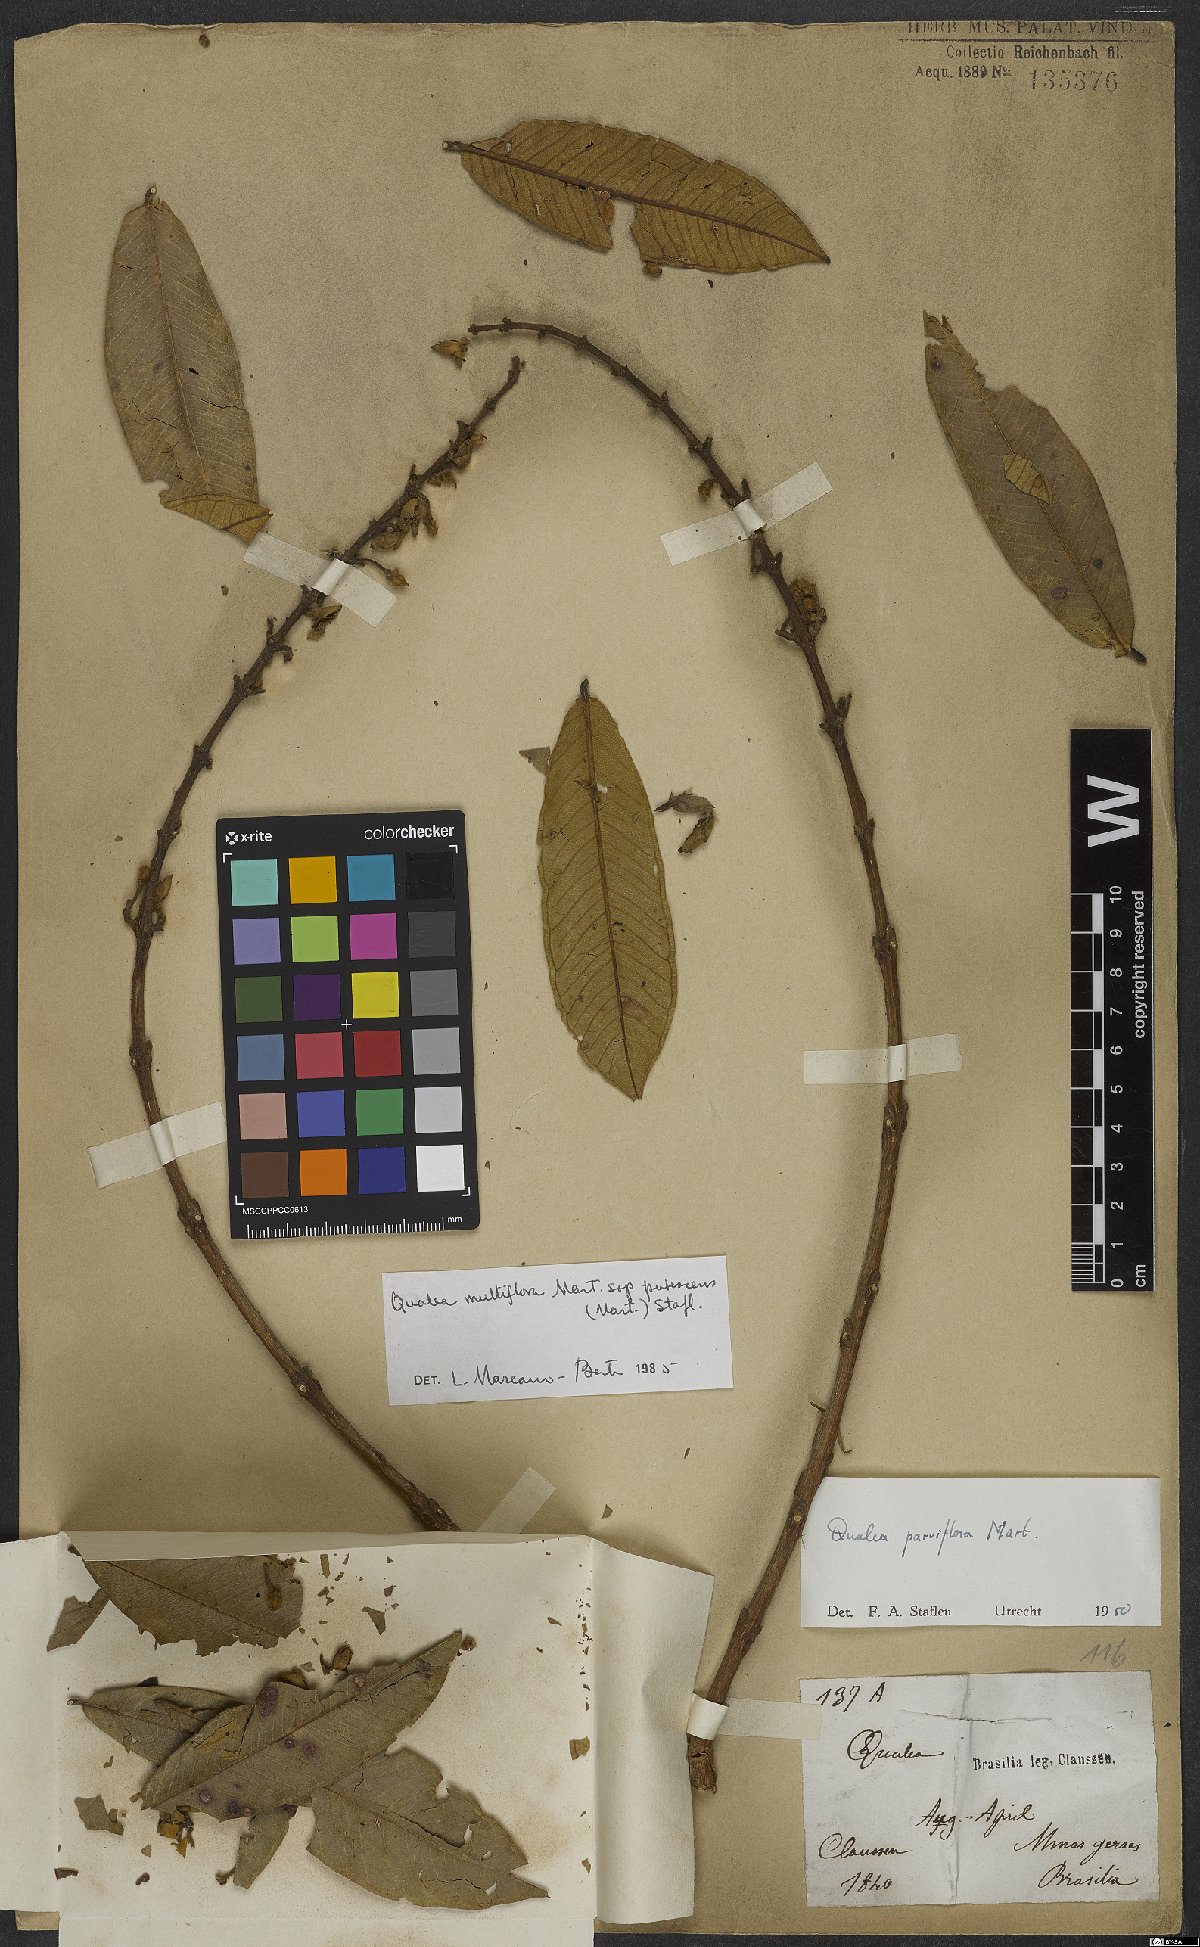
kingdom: Plantae
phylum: Tracheophyta
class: Magnoliopsida
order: Myrtales
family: Vochysiaceae
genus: Qualea
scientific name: Qualea multiflora
